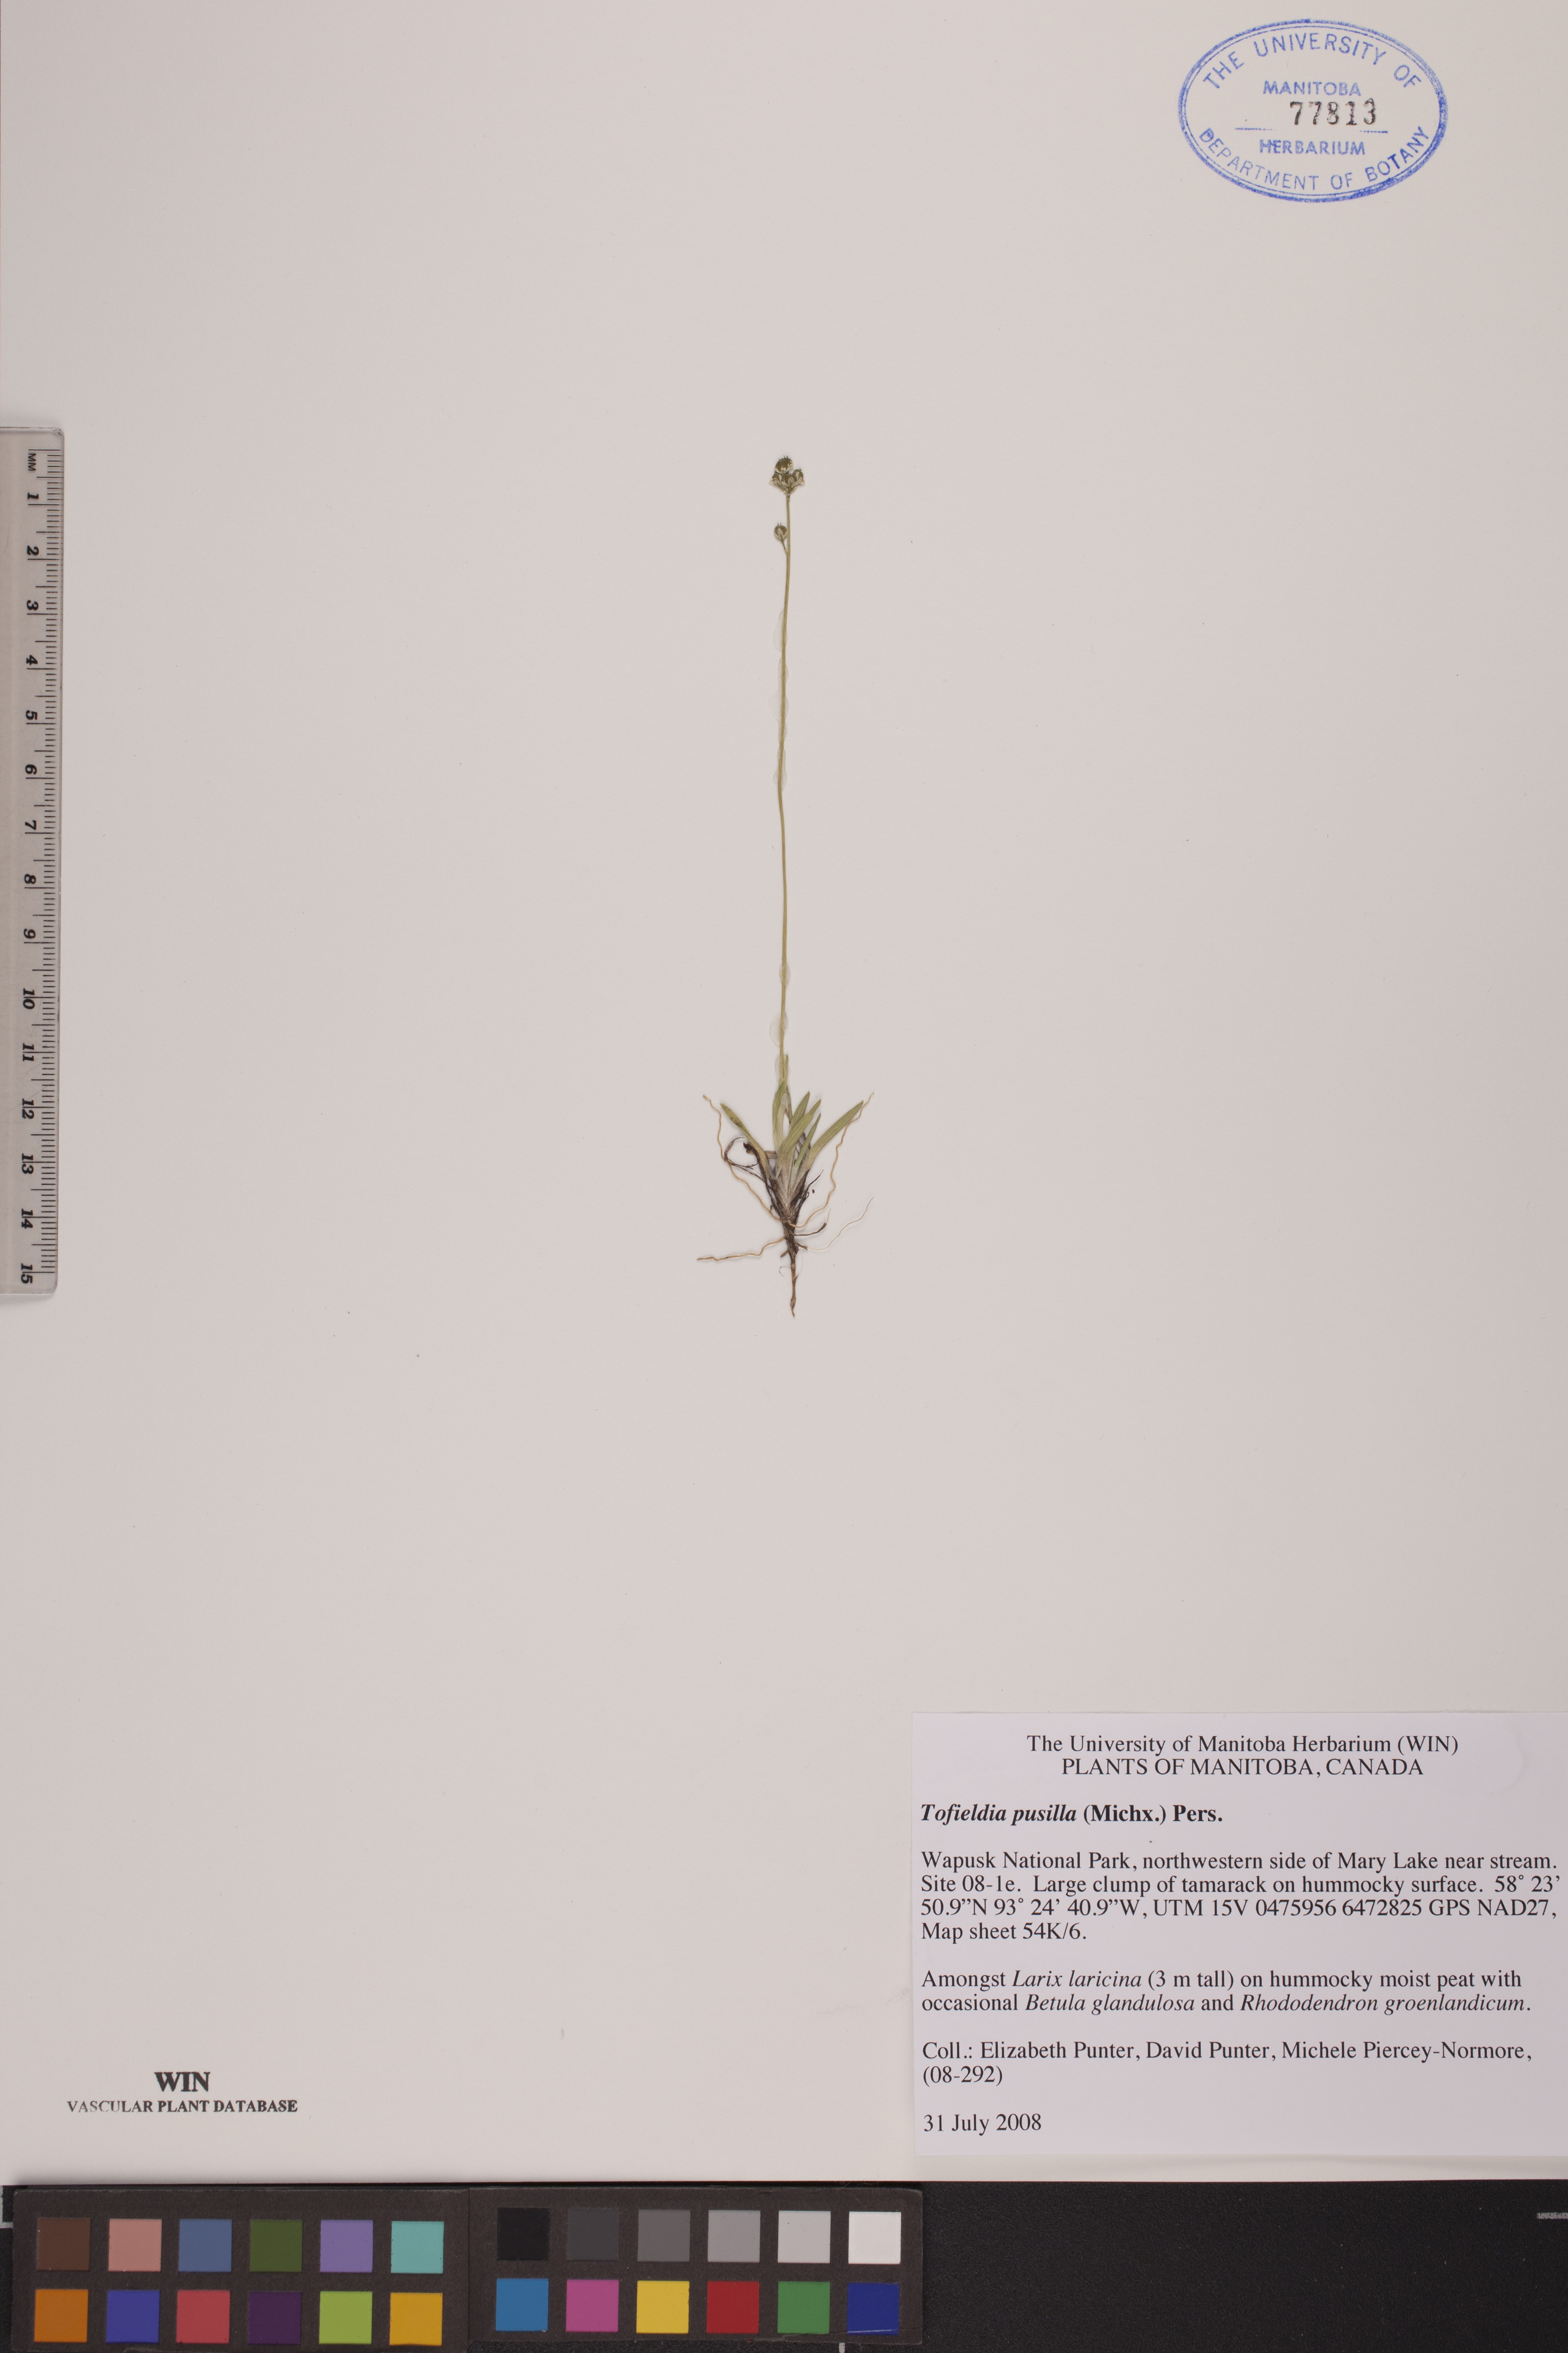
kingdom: Plantae
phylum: Tracheophyta
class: Liliopsida
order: Alismatales
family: Tofieldiaceae
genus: Tofieldia
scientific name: Tofieldia pusilla
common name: Scottish false asphodel
